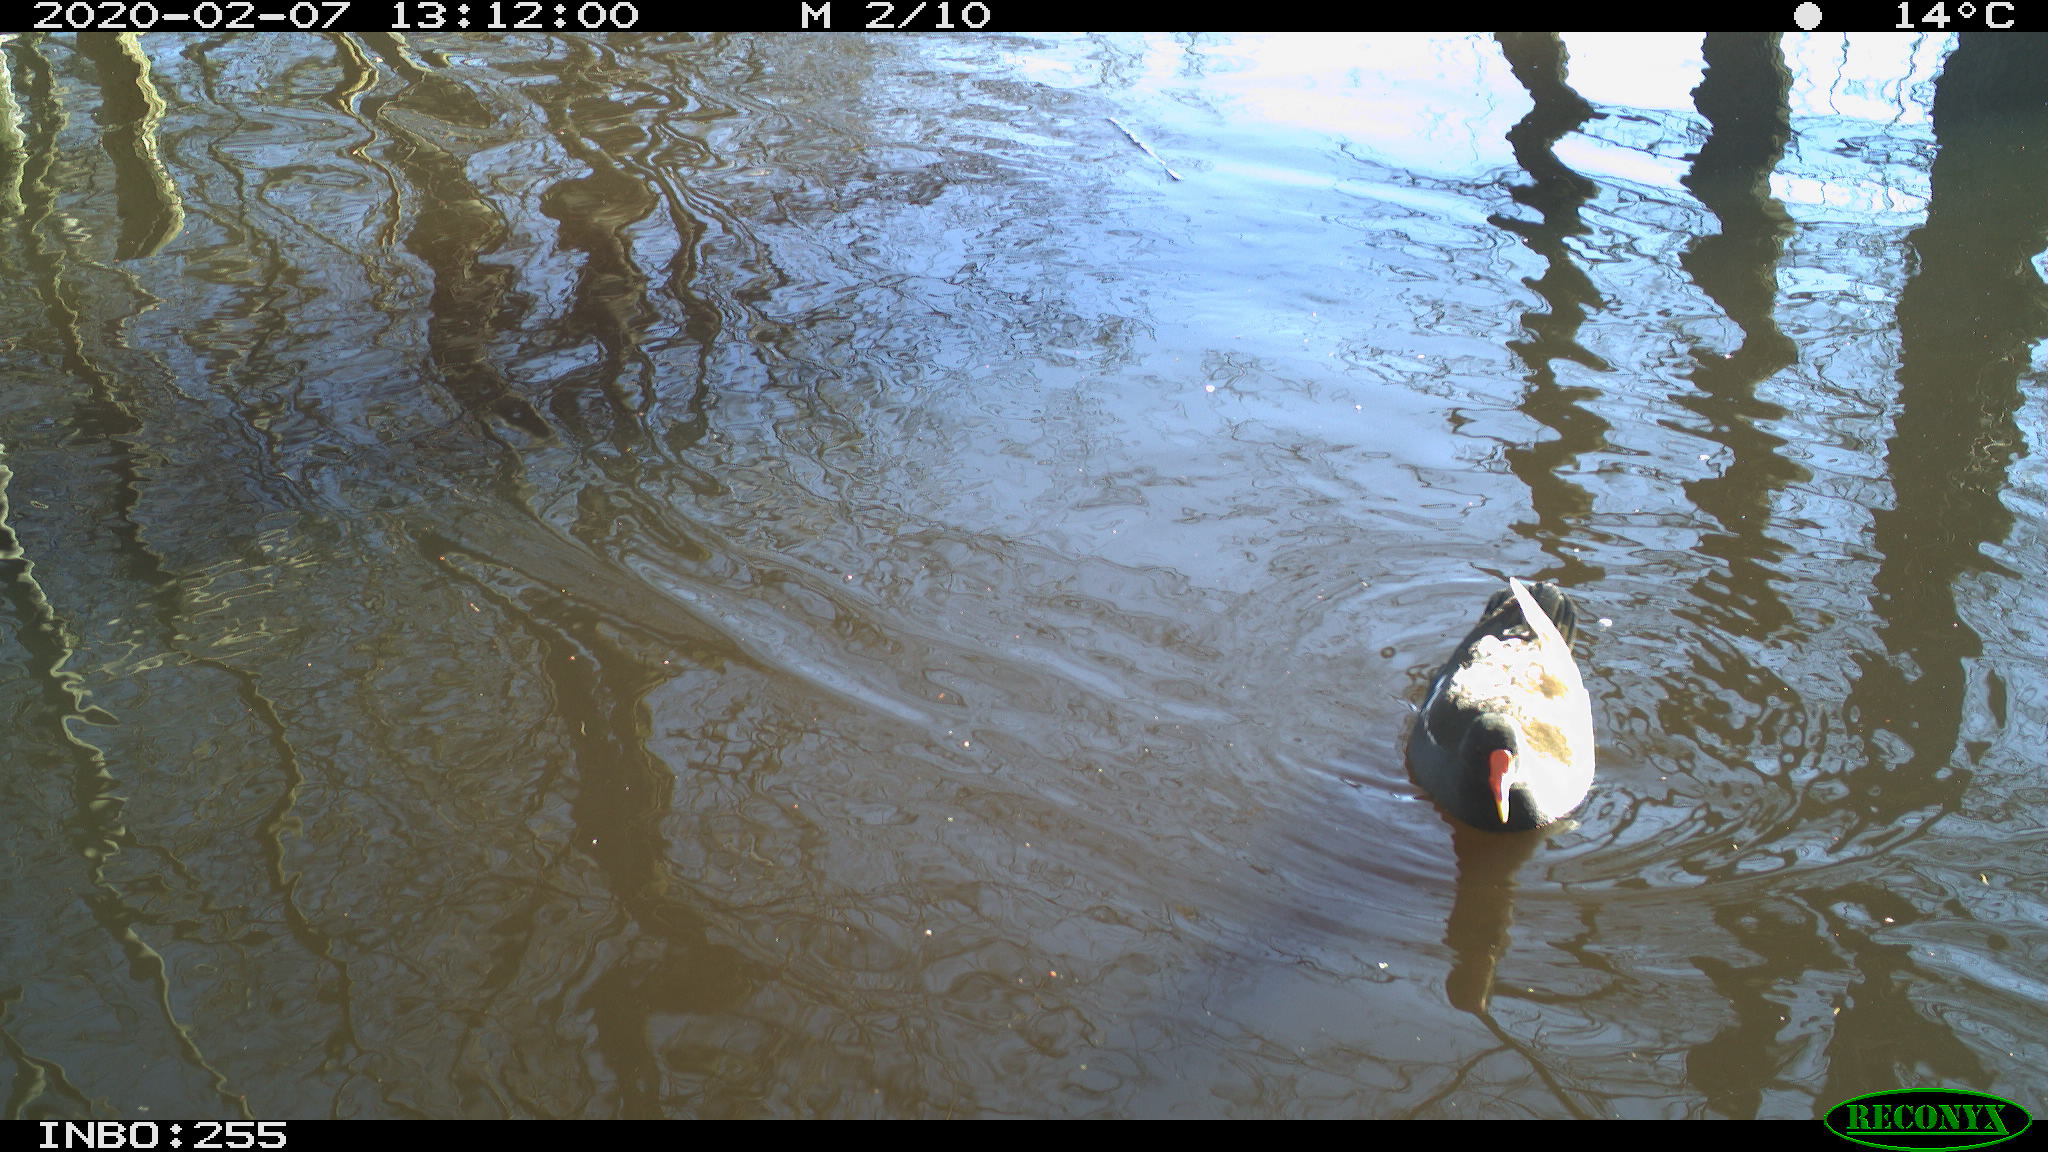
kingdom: Animalia
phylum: Chordata
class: Aves
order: Gruiformes
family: Rallidae
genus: Gallinula
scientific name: Gallinula chloropus
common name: Common moorhen
